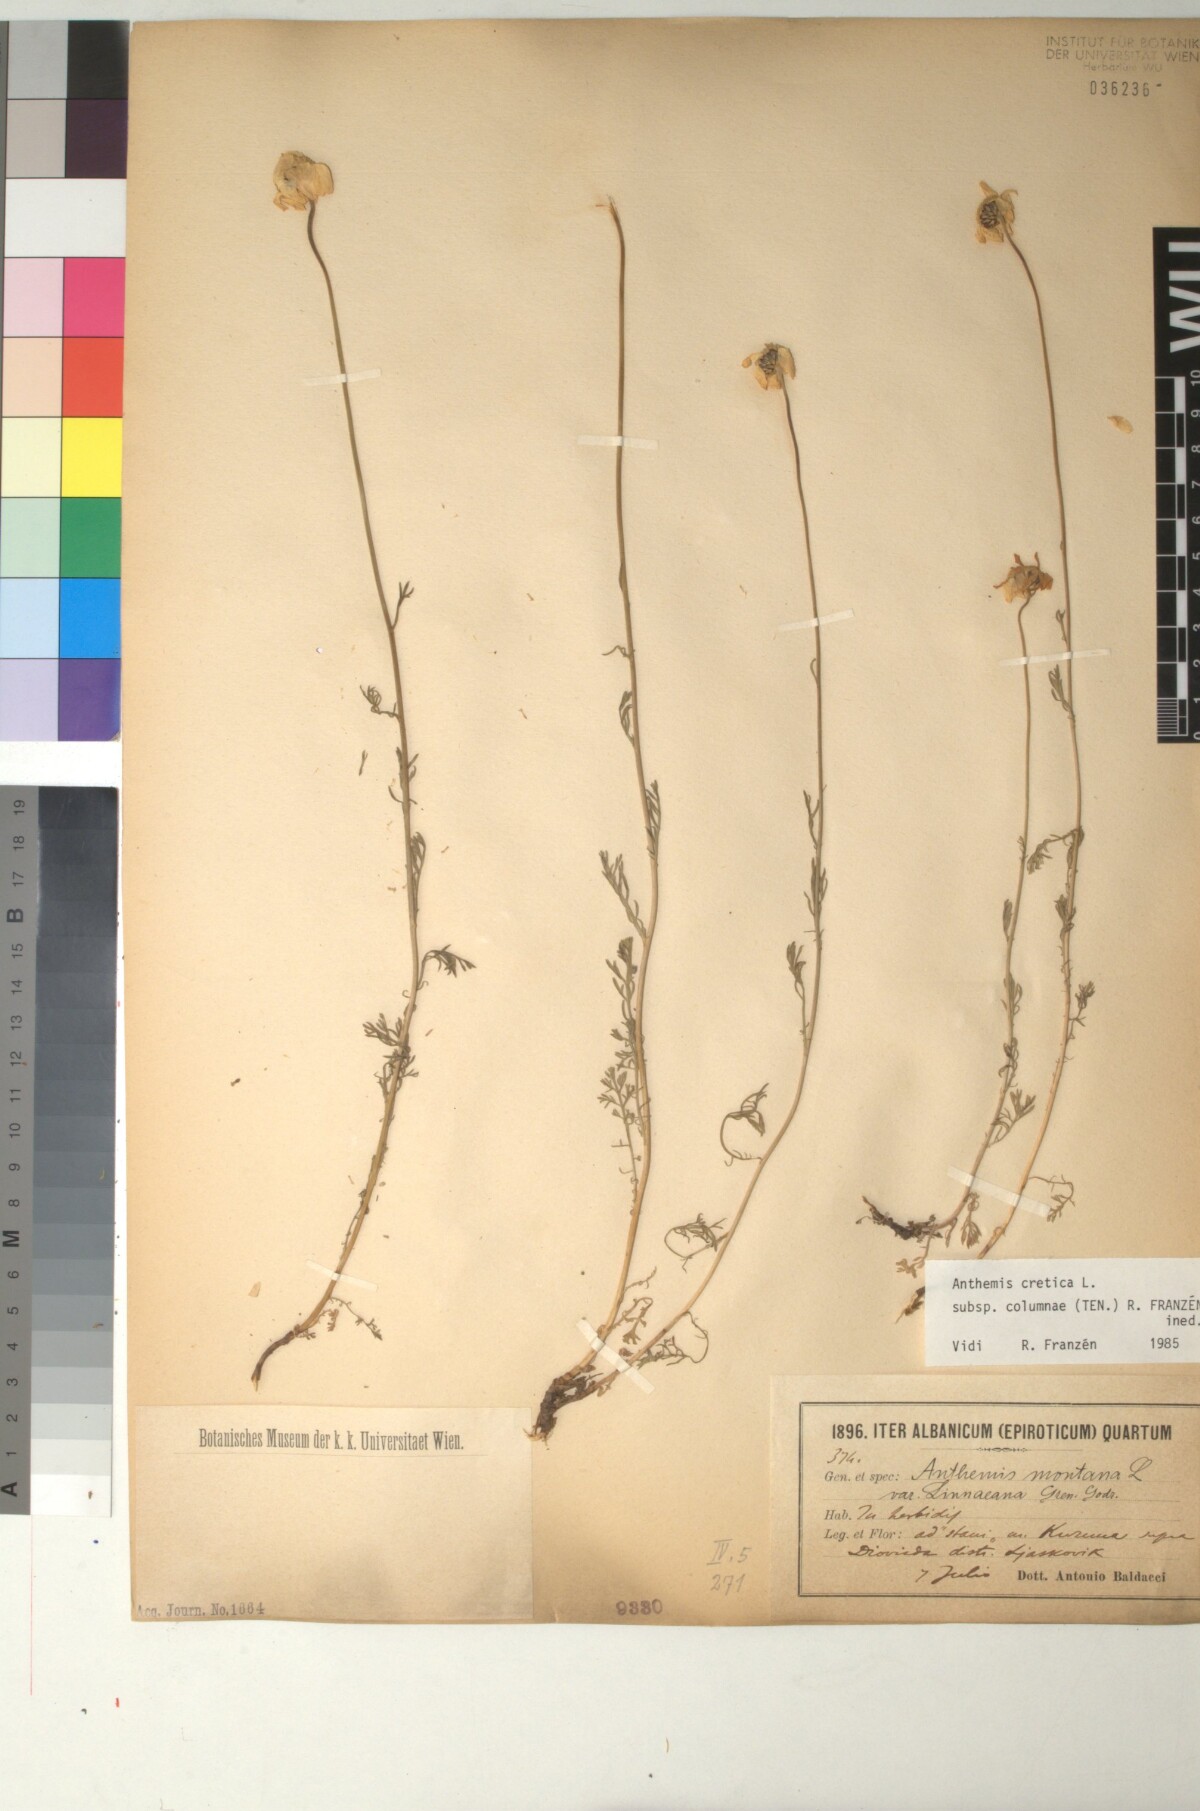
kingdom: Plantae
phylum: Tracheophyta
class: Magnoliopsida
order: Asterales
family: Asteraceae
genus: Anthemis
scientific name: Anthemis cretica
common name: Mountain dog-daisy
